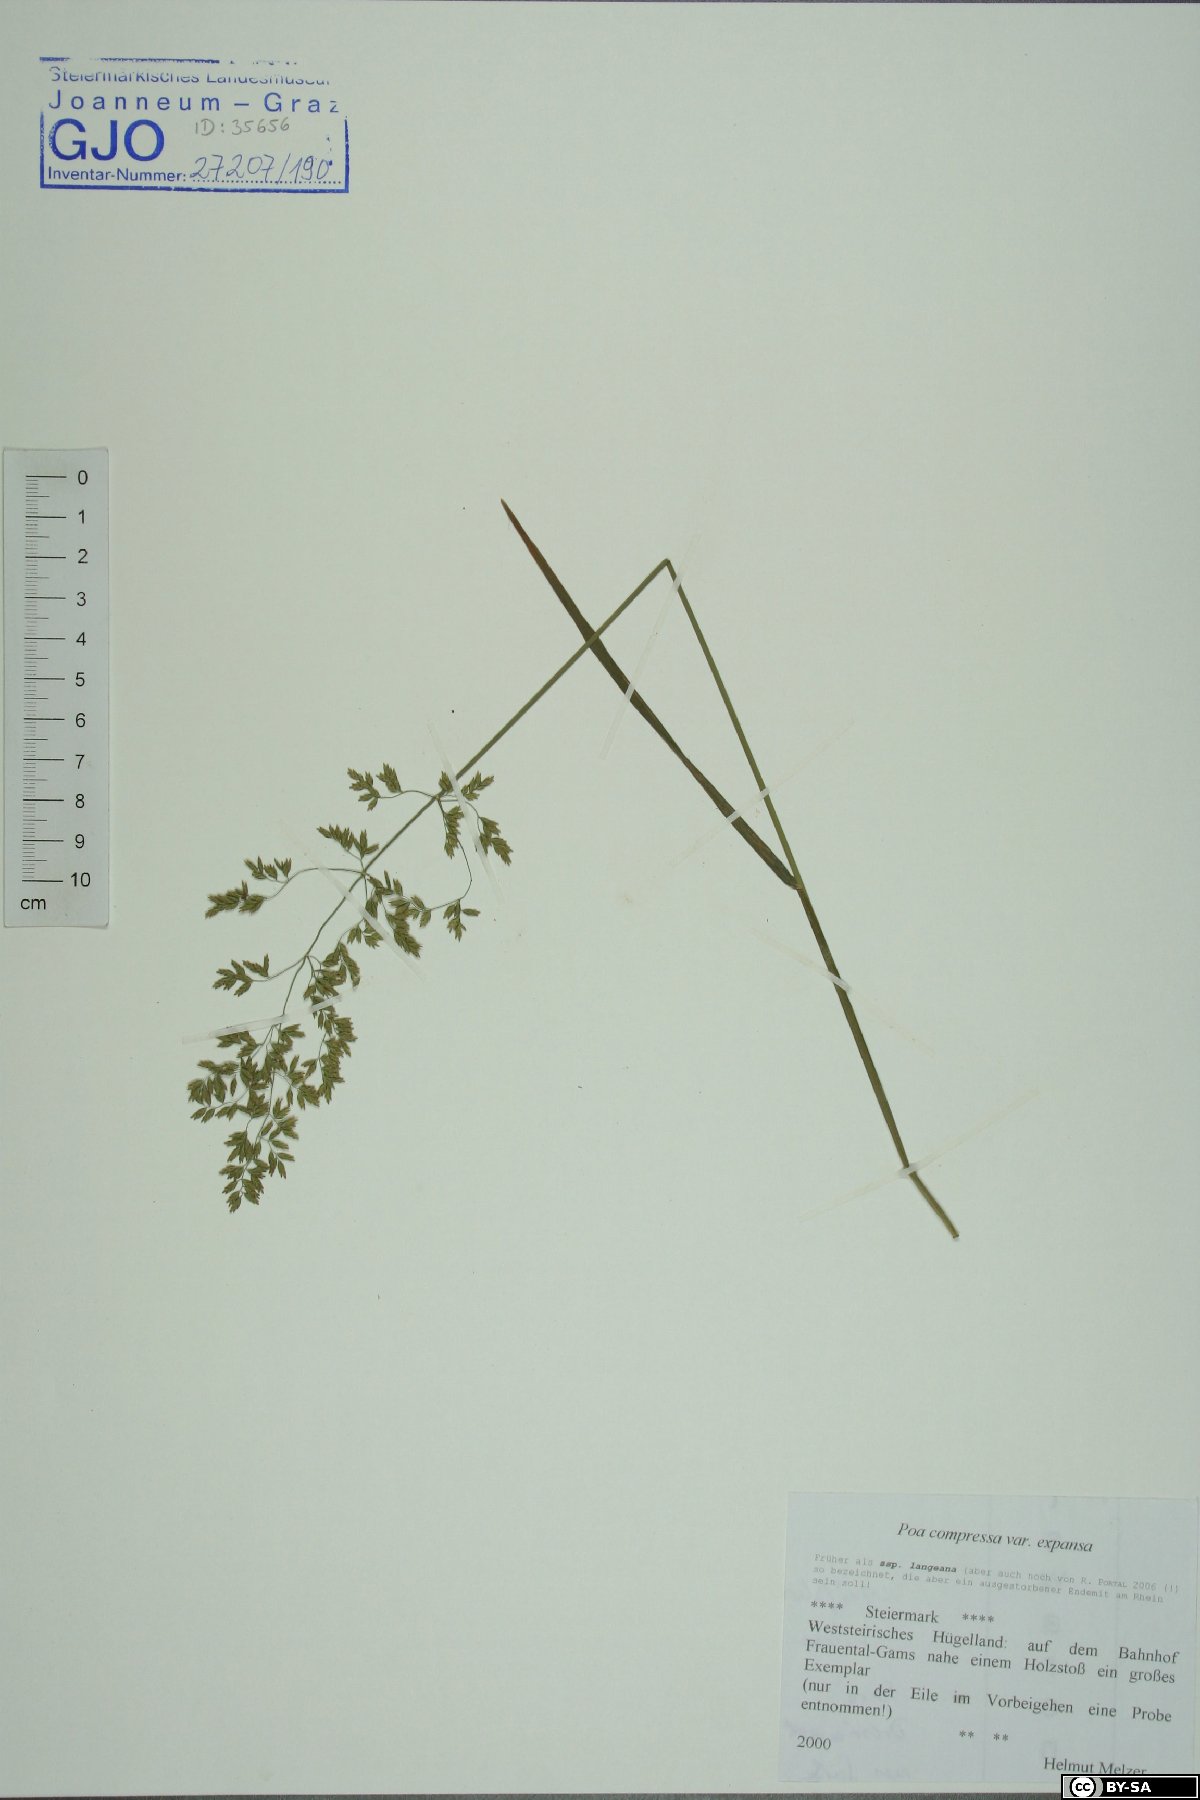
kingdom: Plantae
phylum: Tracheophyta
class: Liliopsida
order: Poales
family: Poaceae
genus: Poa
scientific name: Poa compressa
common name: Canada bluegrass
